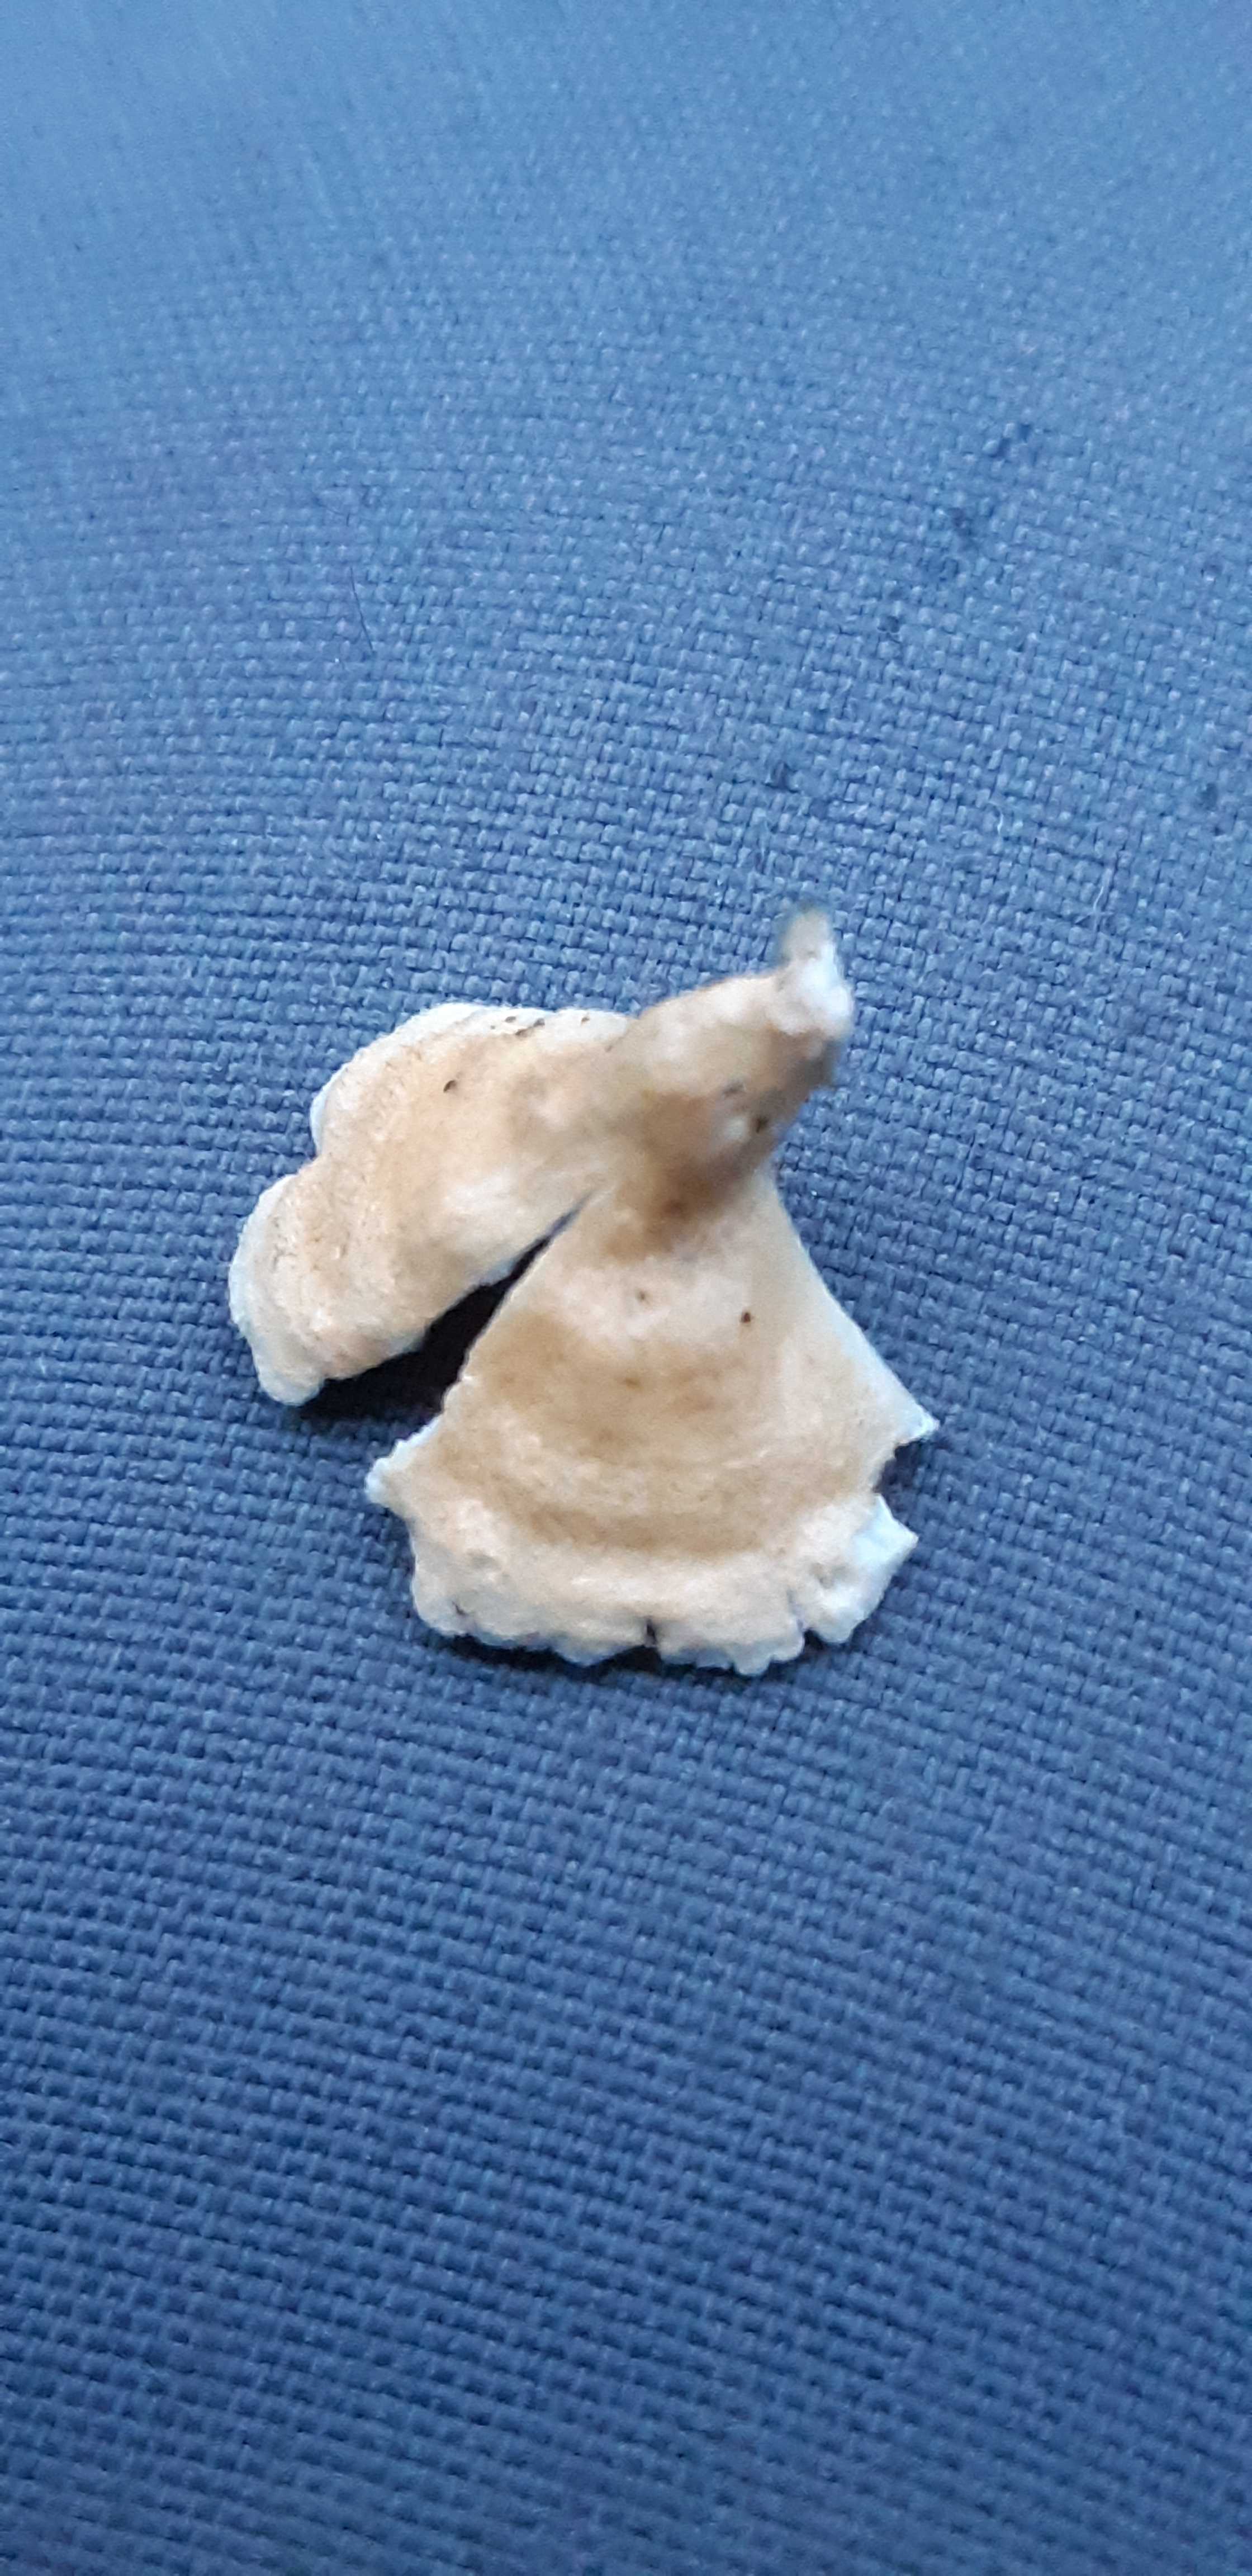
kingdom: Fungi
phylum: Basidiomycota
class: Agaricomycetes
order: Amylocorticiales
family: Amylocorticiaceae
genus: Plicaturopsis
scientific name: Plicaturopsis crispa
